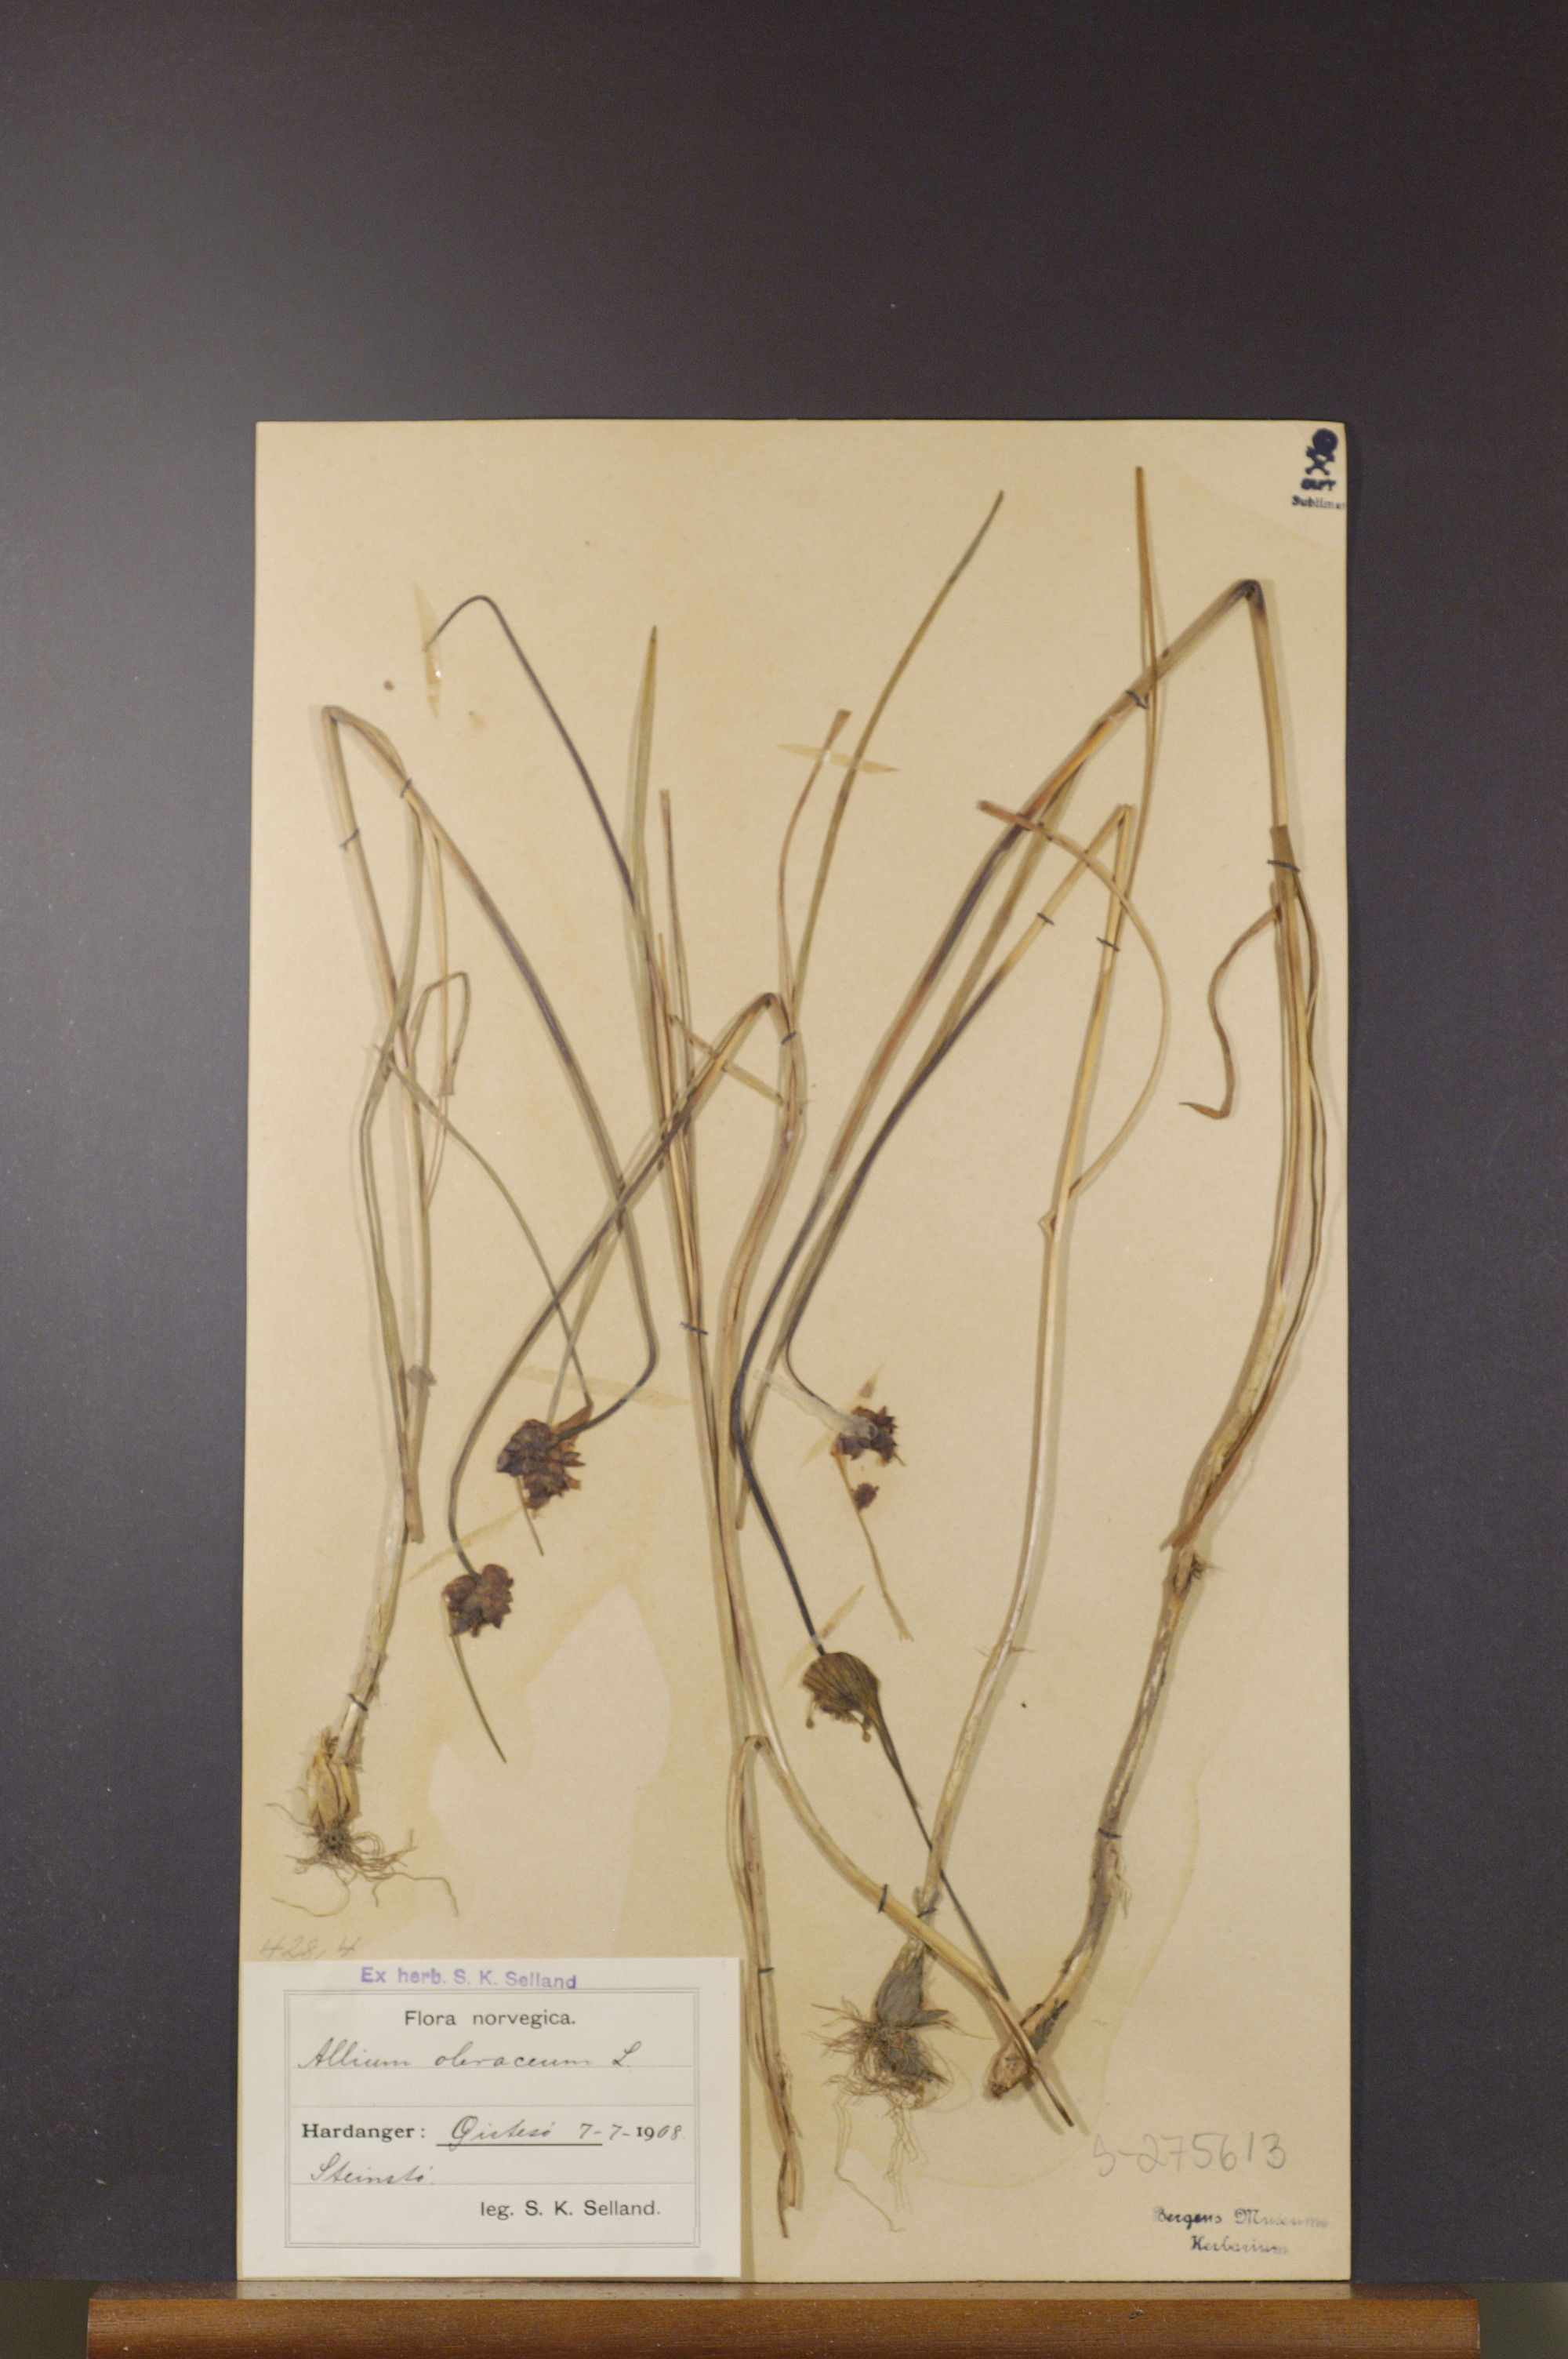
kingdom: Plantae
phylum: Tracheophyta
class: Liliopsida
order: Asparagales
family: Amaryllidaceae
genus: Allium
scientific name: Allium oleraceum
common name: Field garlic
